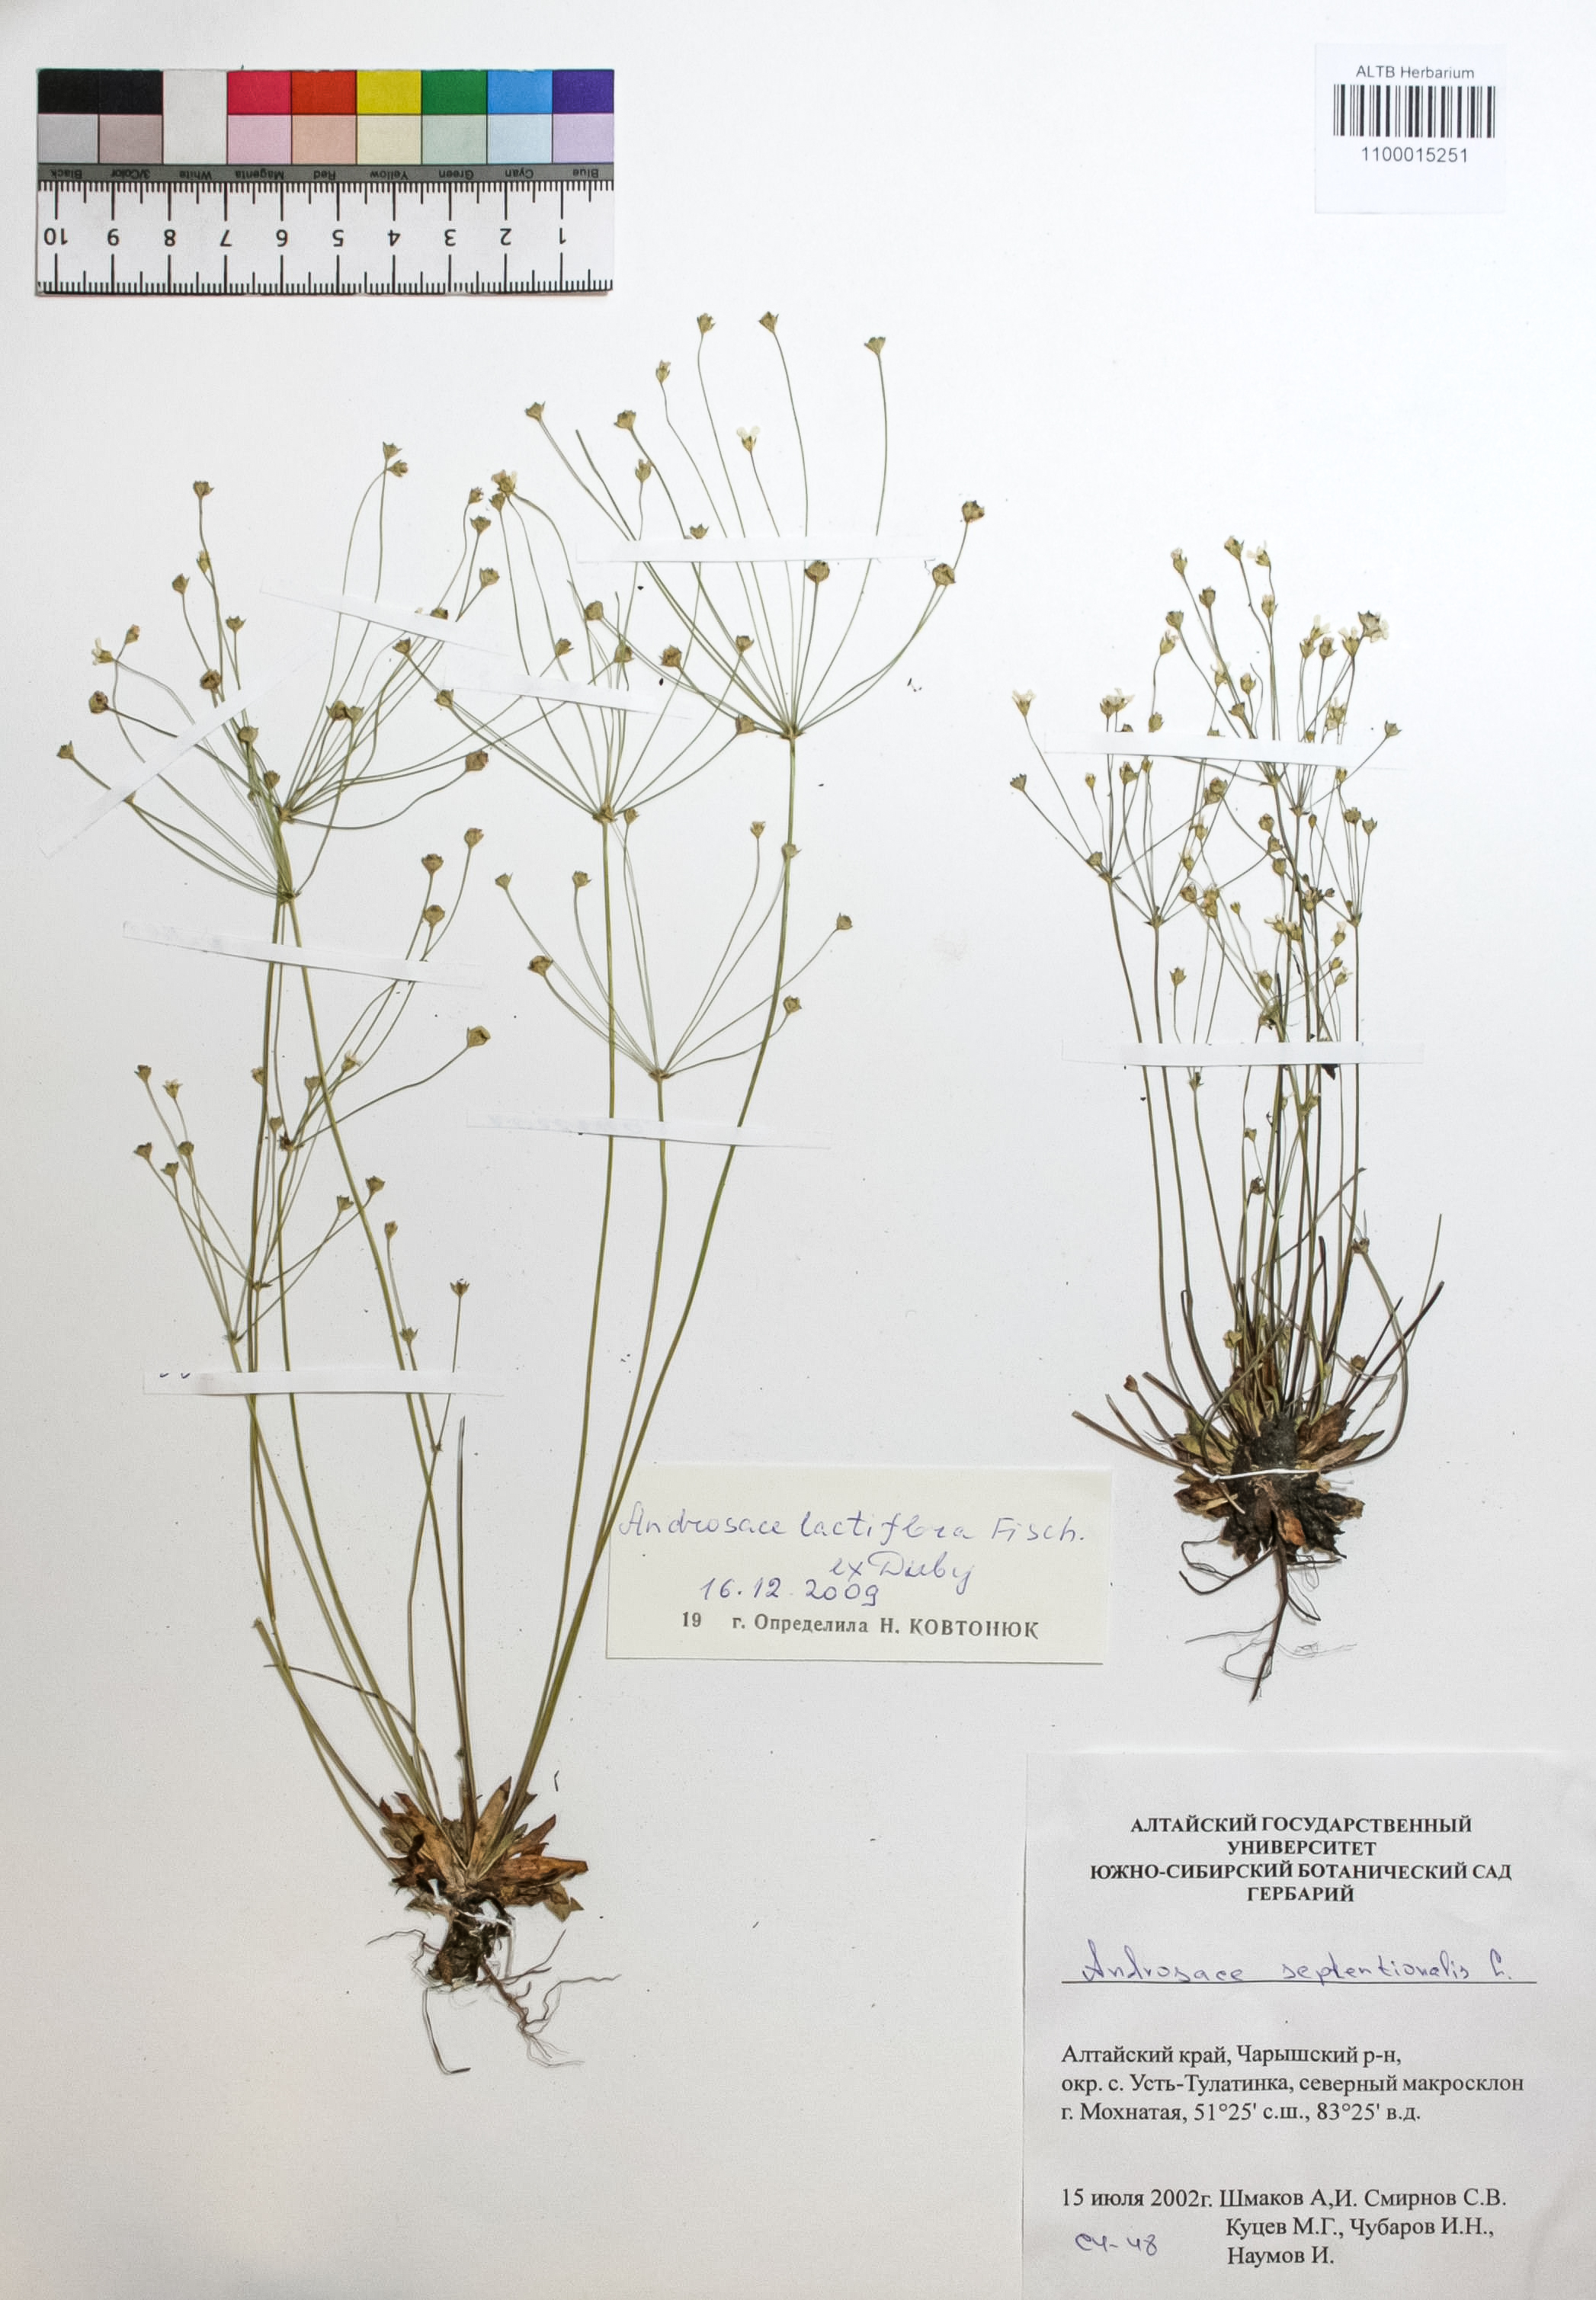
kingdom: Plantae
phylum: Tracheophyta
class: Magnoliopsida
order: Ericales
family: Primulaceae
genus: Androsace
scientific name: Androsace lactiflora
